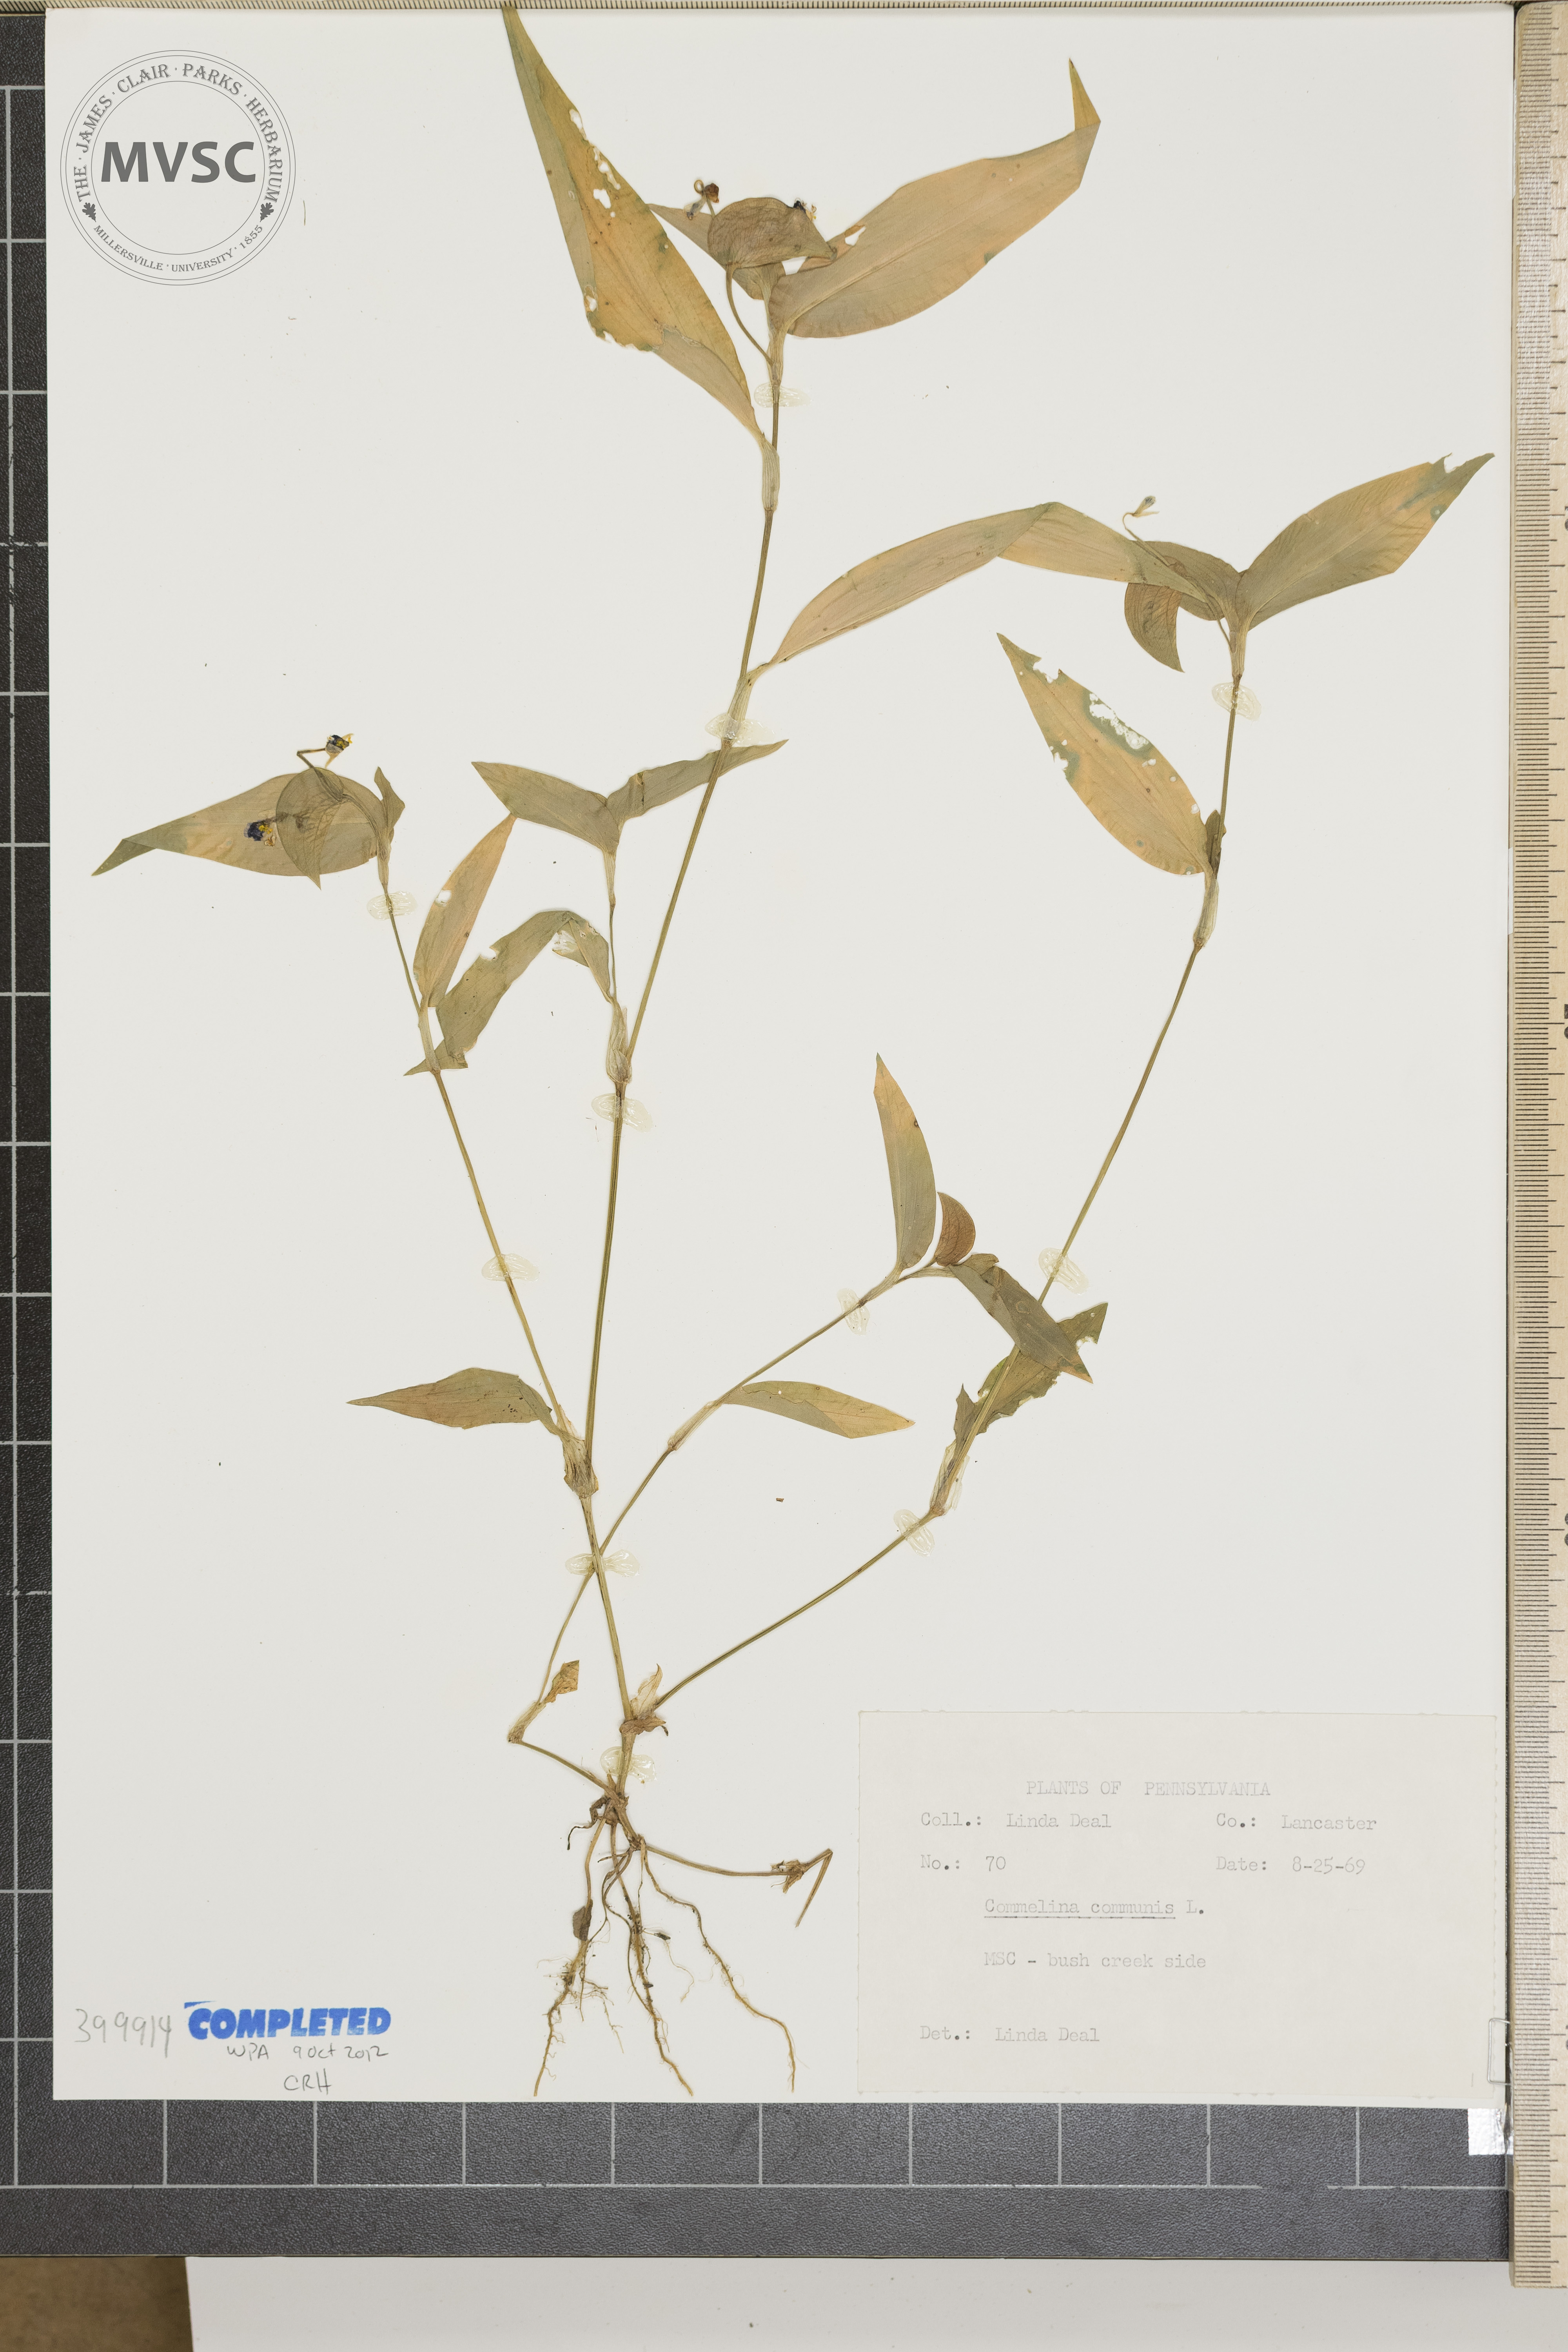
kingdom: Plantae
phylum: Tracheophyta
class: Liliopsida
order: Commelinales
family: Commelinaceae
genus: Commelina
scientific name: Commelina communis
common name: Asiatic dayflower
